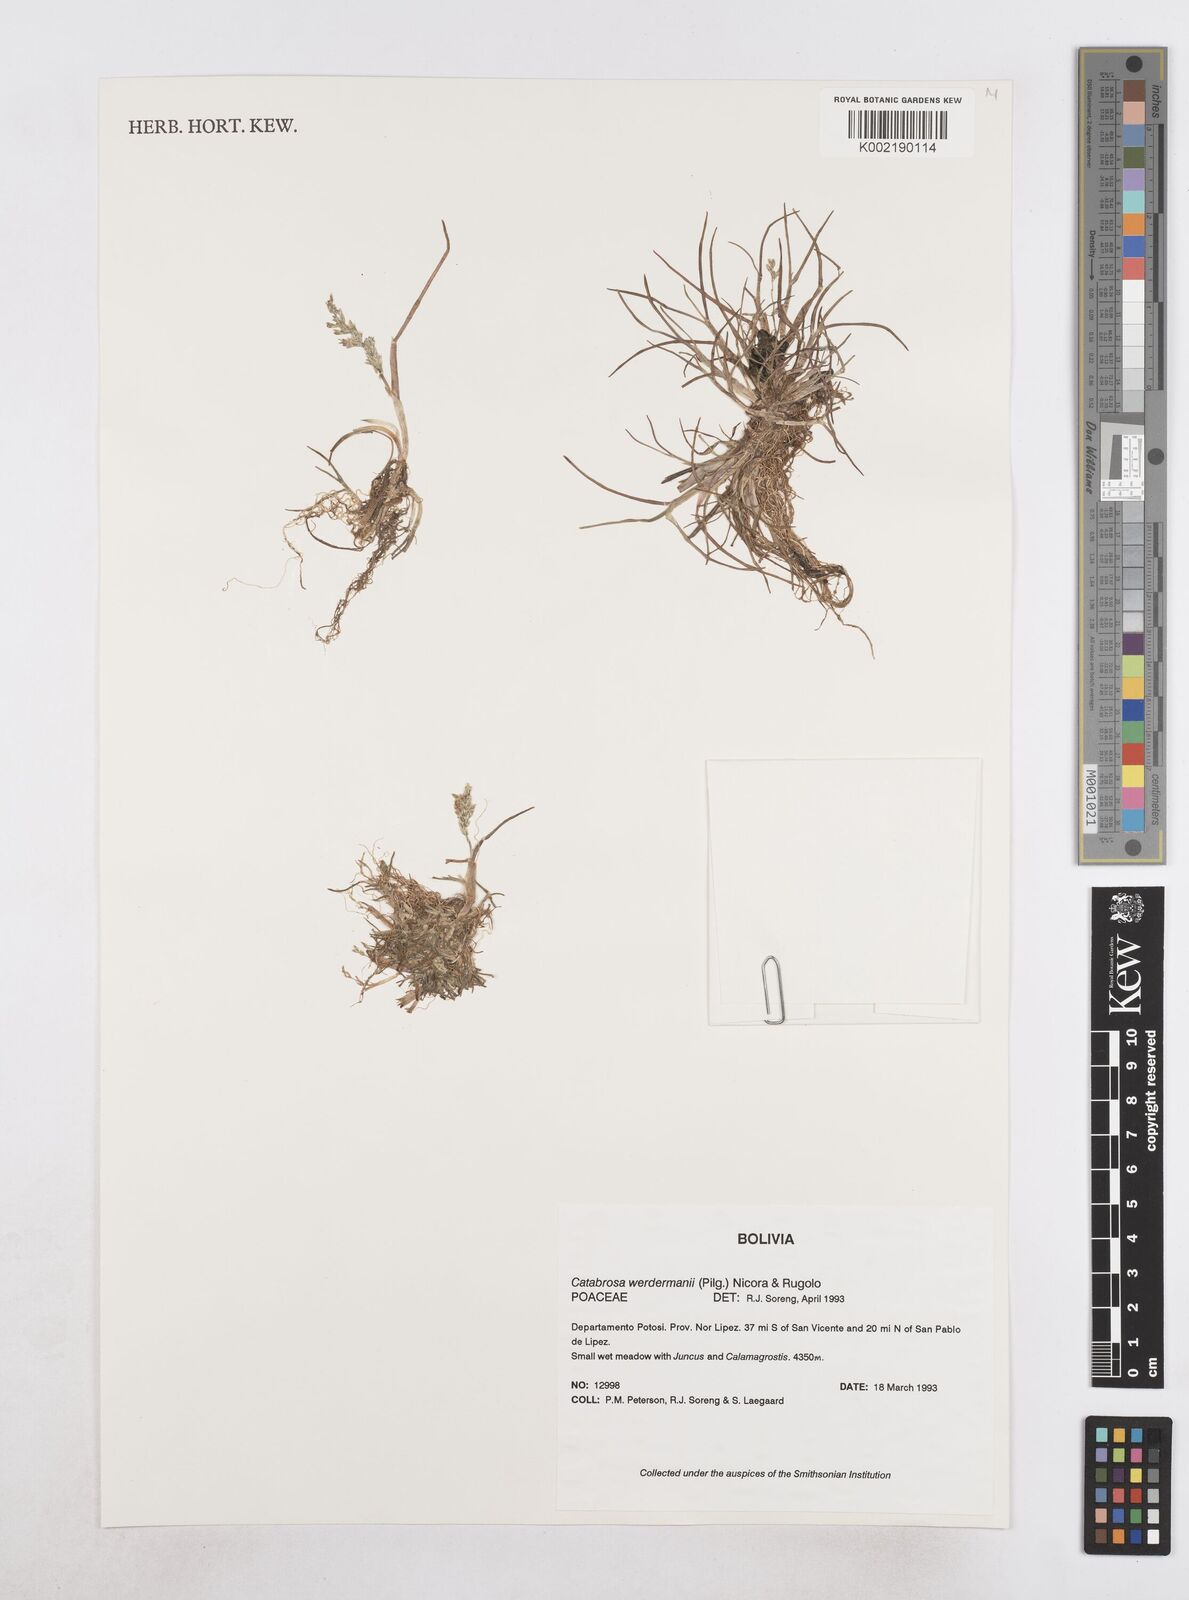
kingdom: Plantae
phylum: Tracheophyta
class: Liliopsida
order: Poales
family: Poaceae
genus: Catabrosa
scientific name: Catabrosa werdermannii
